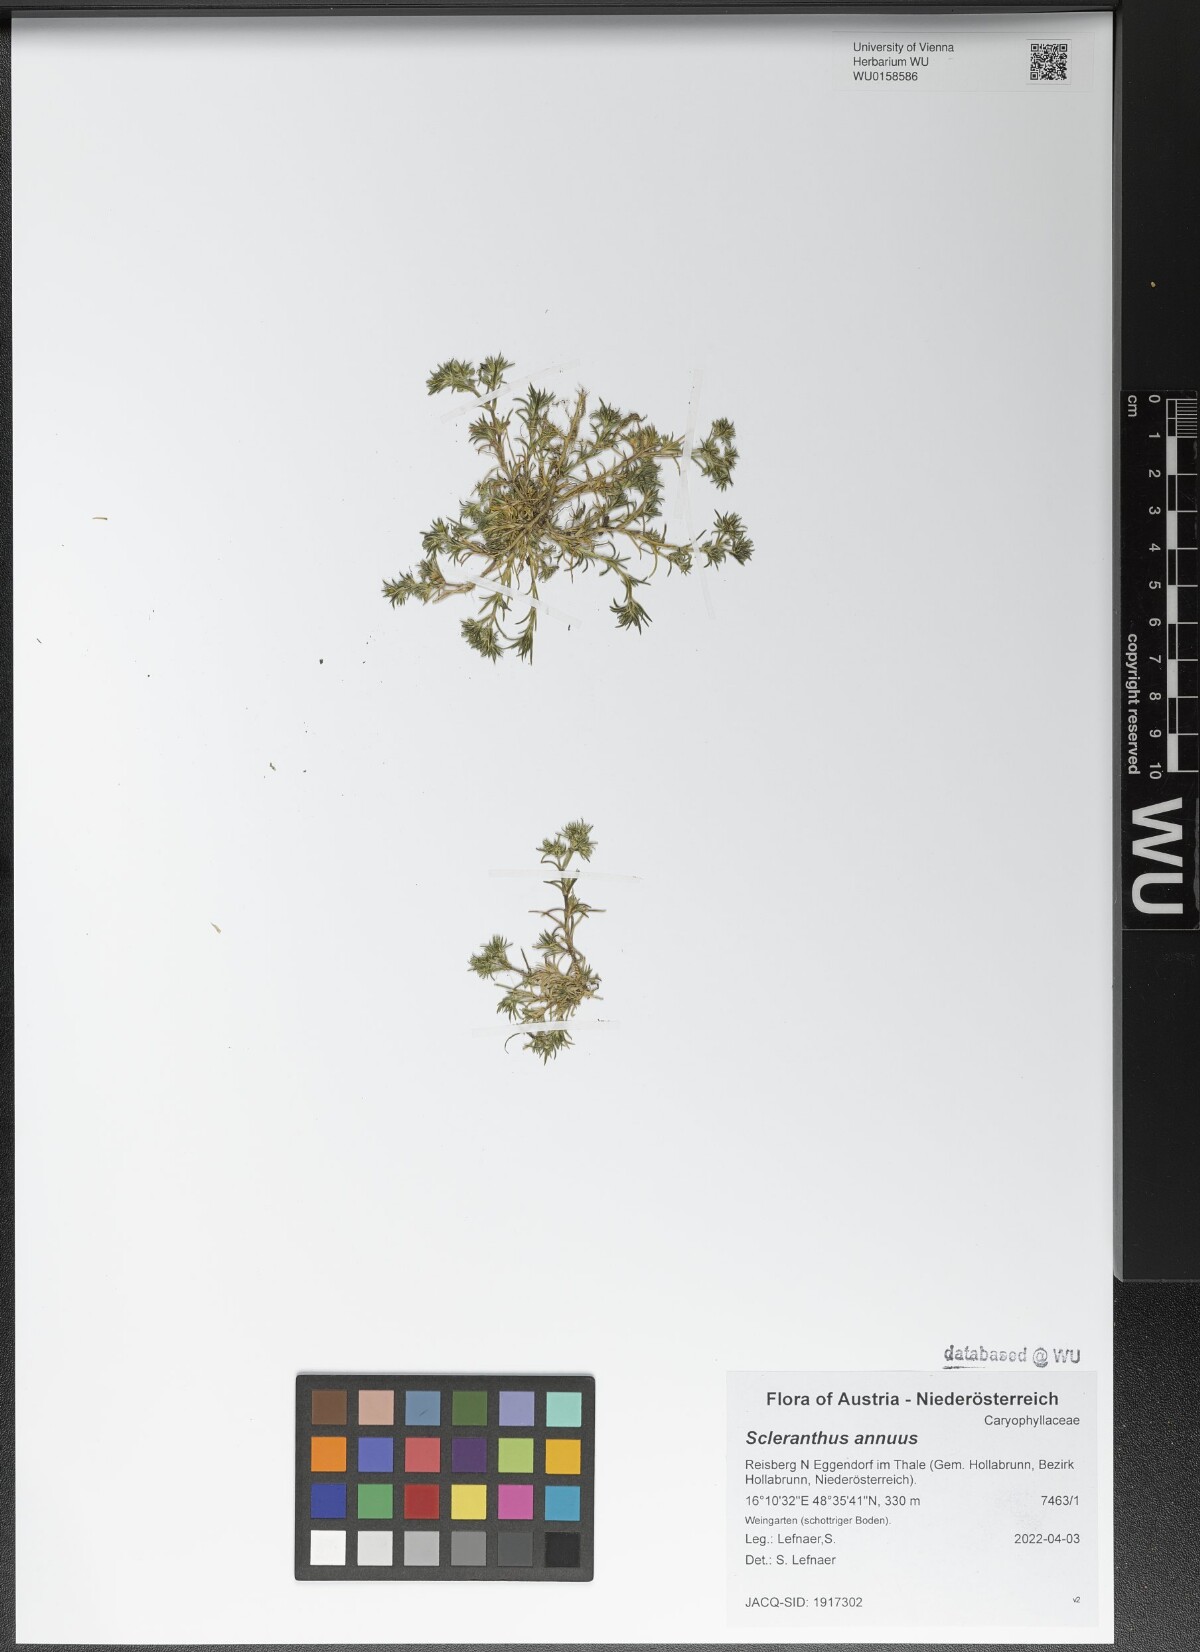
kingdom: Plantae
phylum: Tracheophyta
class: Magnoliopsida
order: Caryophyllales
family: Caryophyllaceae
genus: Scleranthus
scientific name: Scleranthus annuus
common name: Annual knawel
